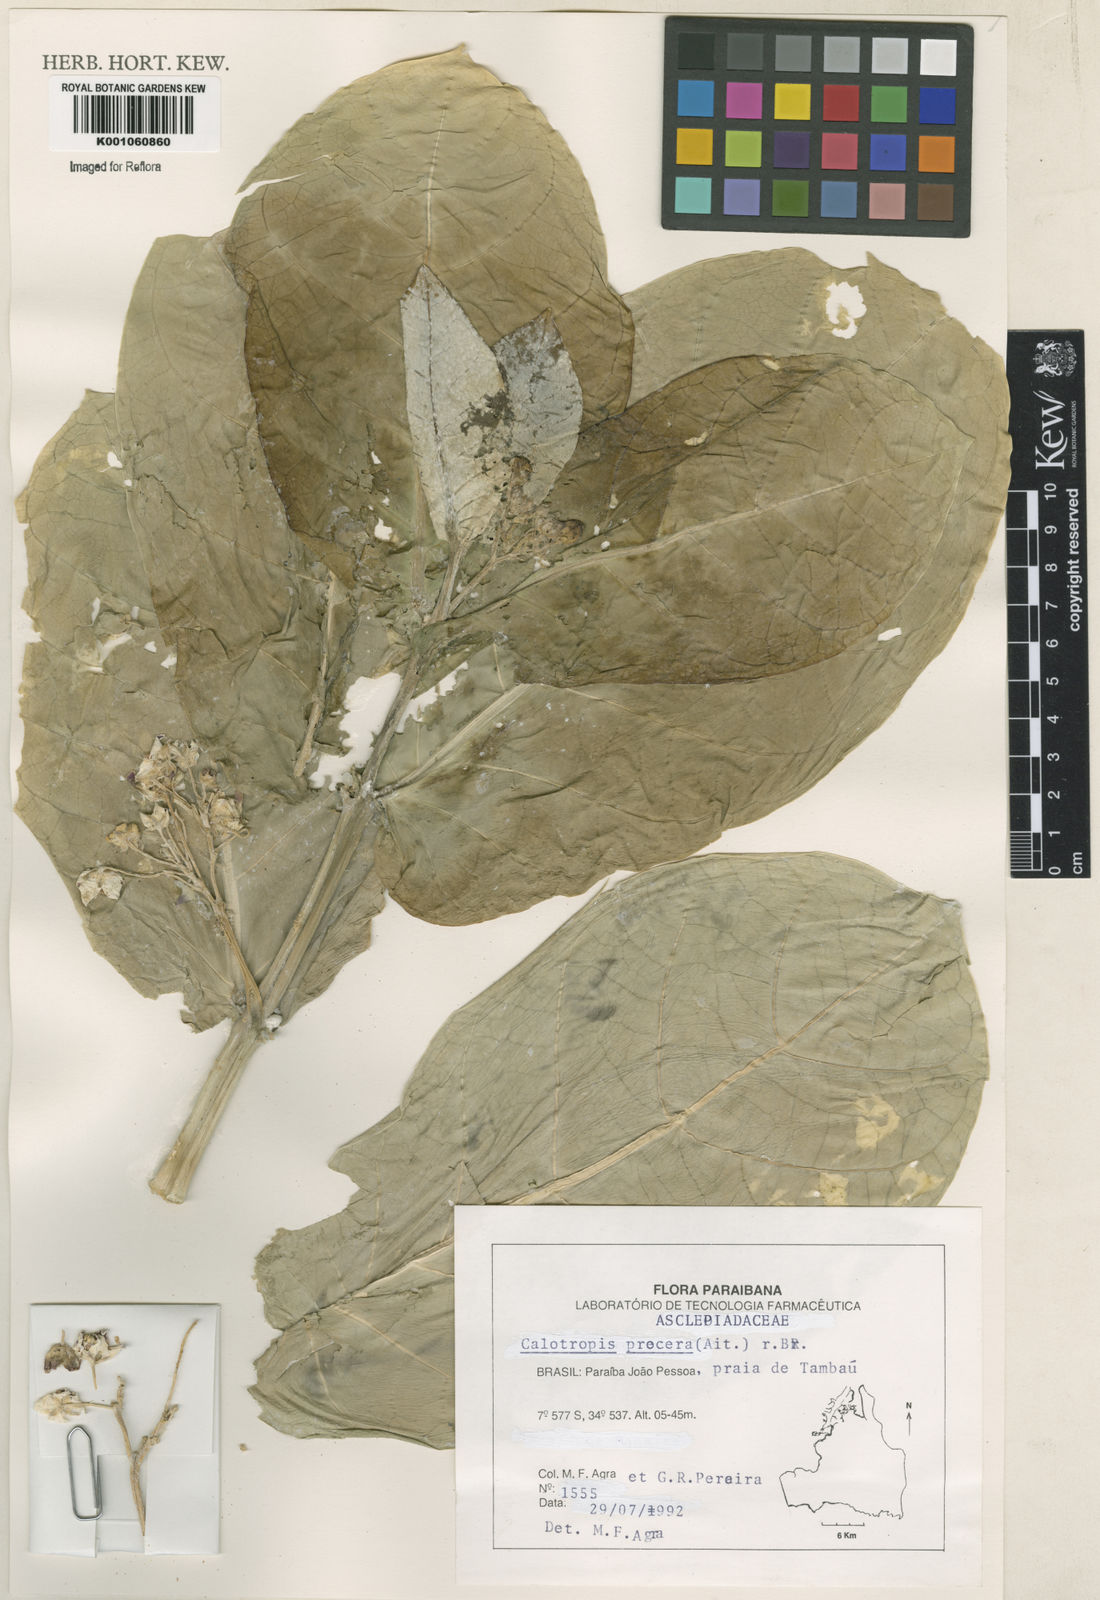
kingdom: Plantae
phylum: Tracheophyta
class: Magnoliopsida
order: Gentianales
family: Apocynaceae
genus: Calotropis
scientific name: Calotropis procera
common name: Roostertree
